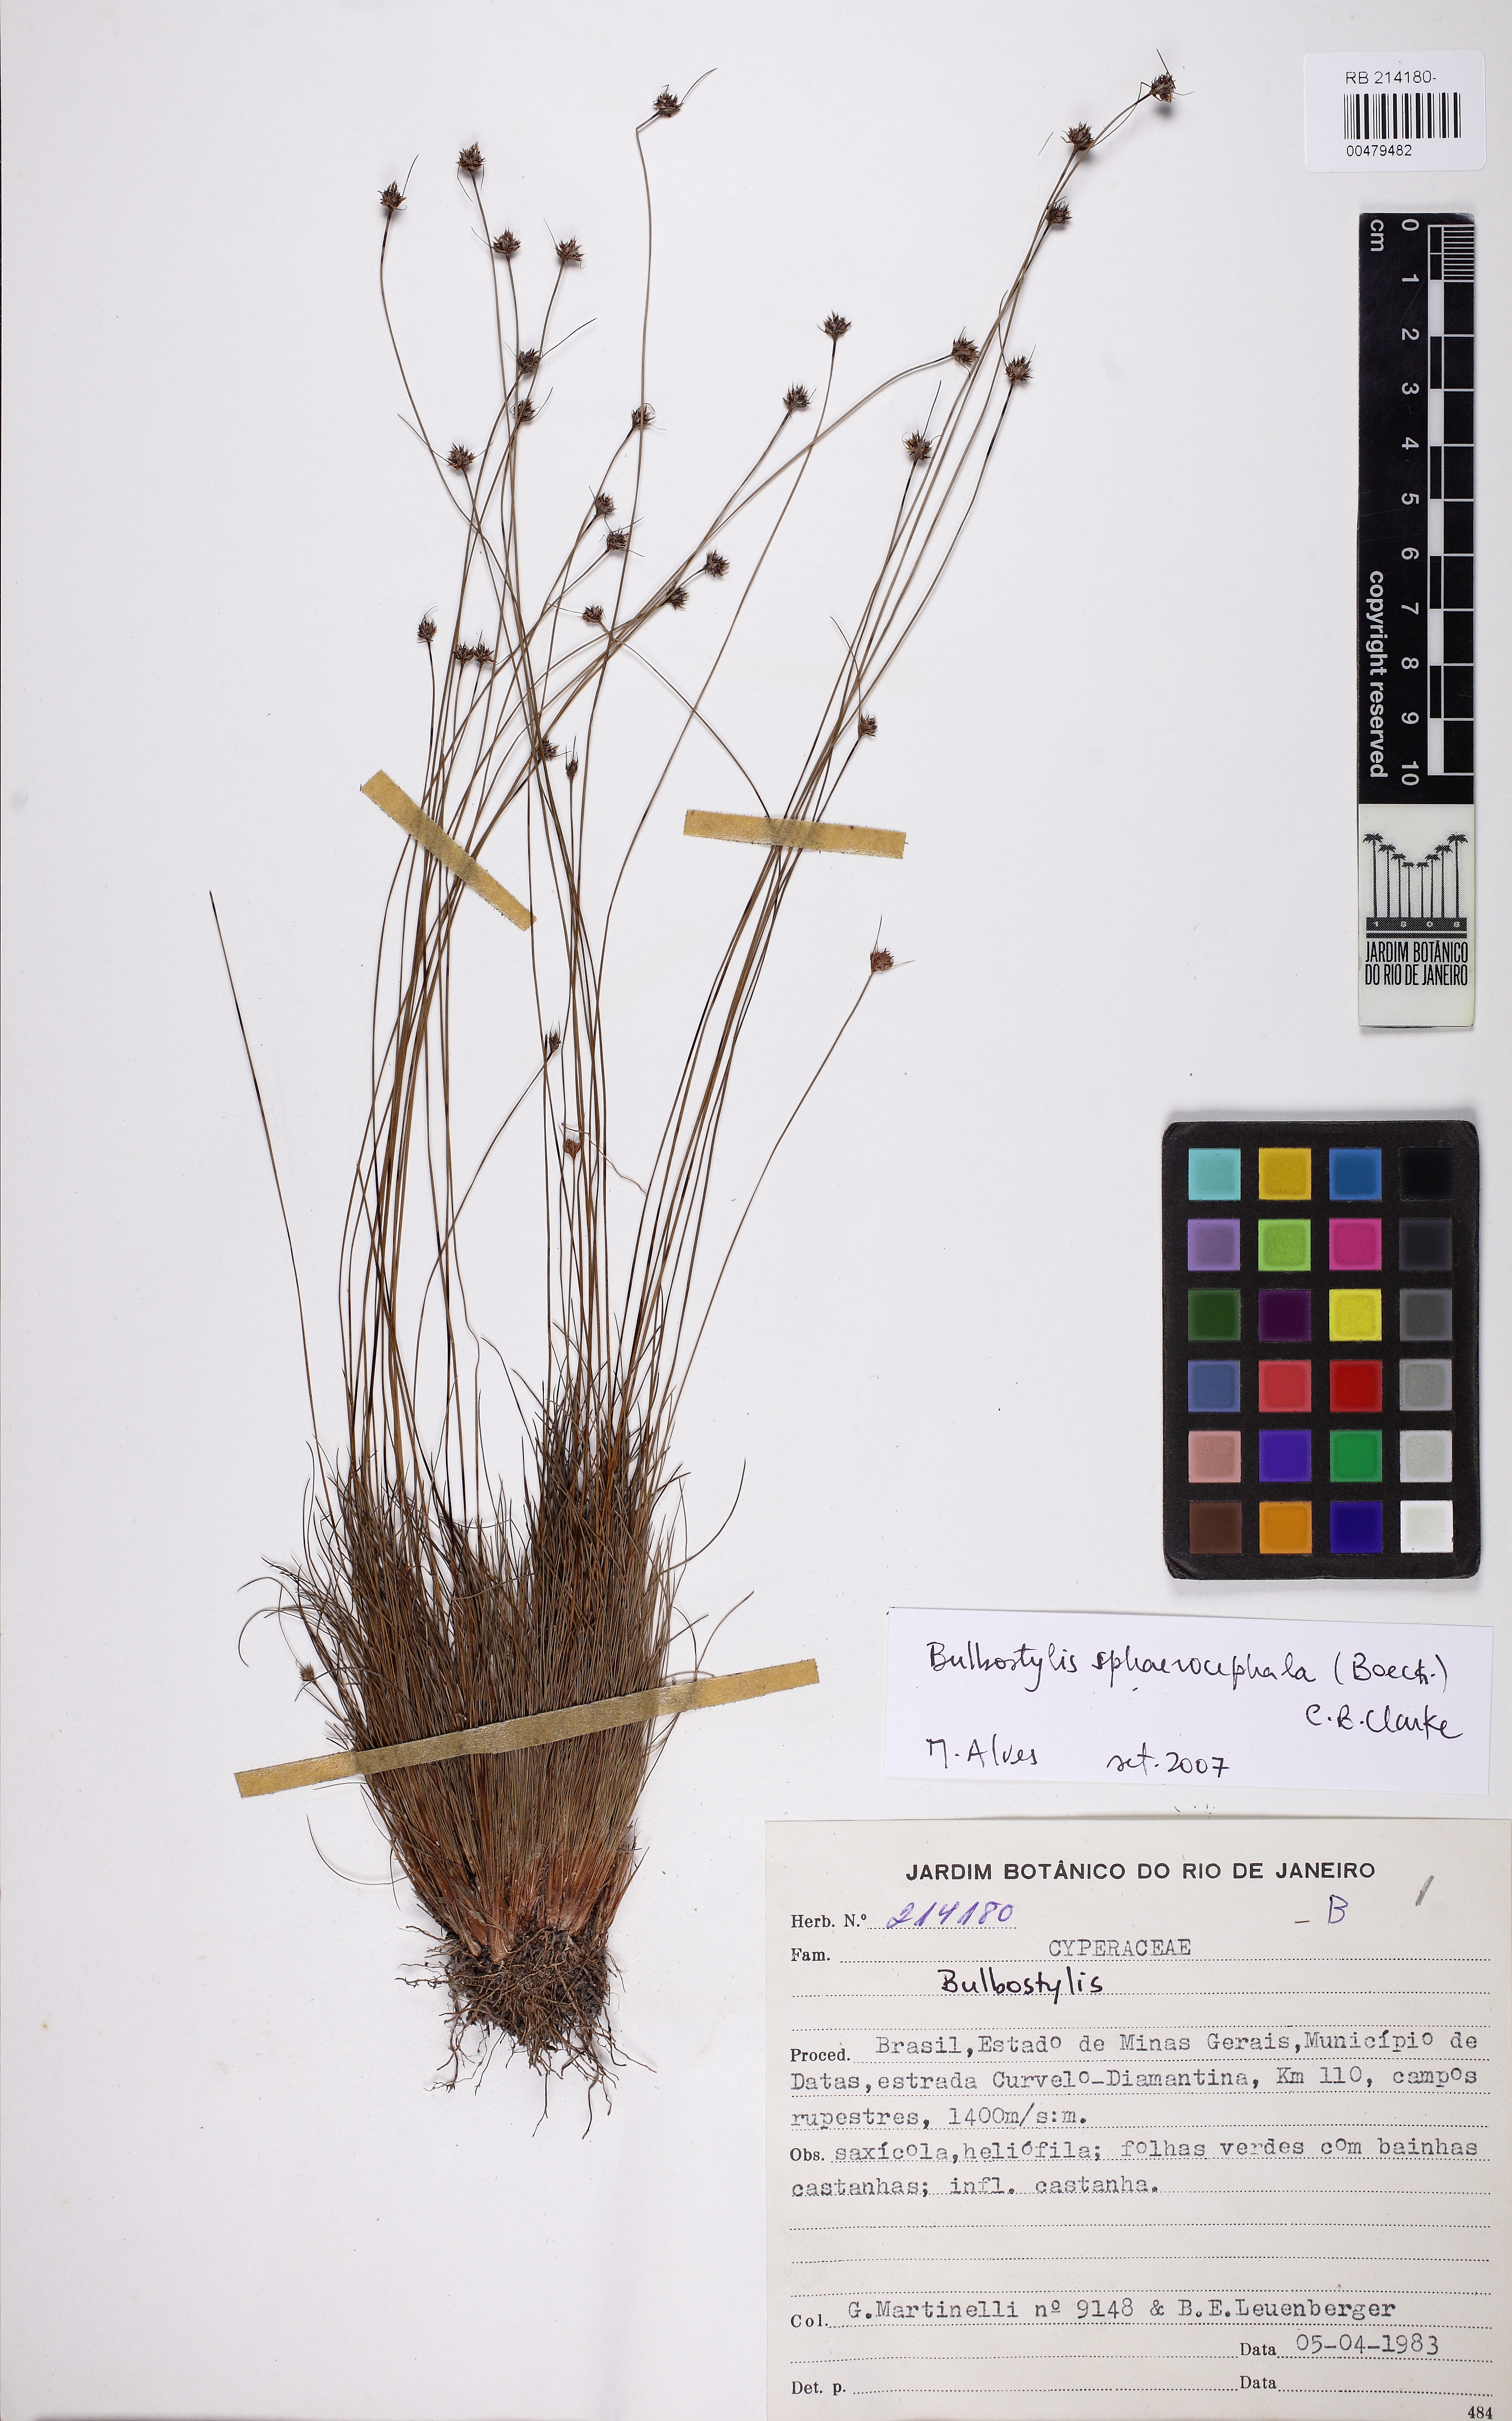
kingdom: Plantae
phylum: Tracheophyta
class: Liliopsida
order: Poales
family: Cyperaceae
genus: Bulbostylis
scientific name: Bulbostylis humilis
